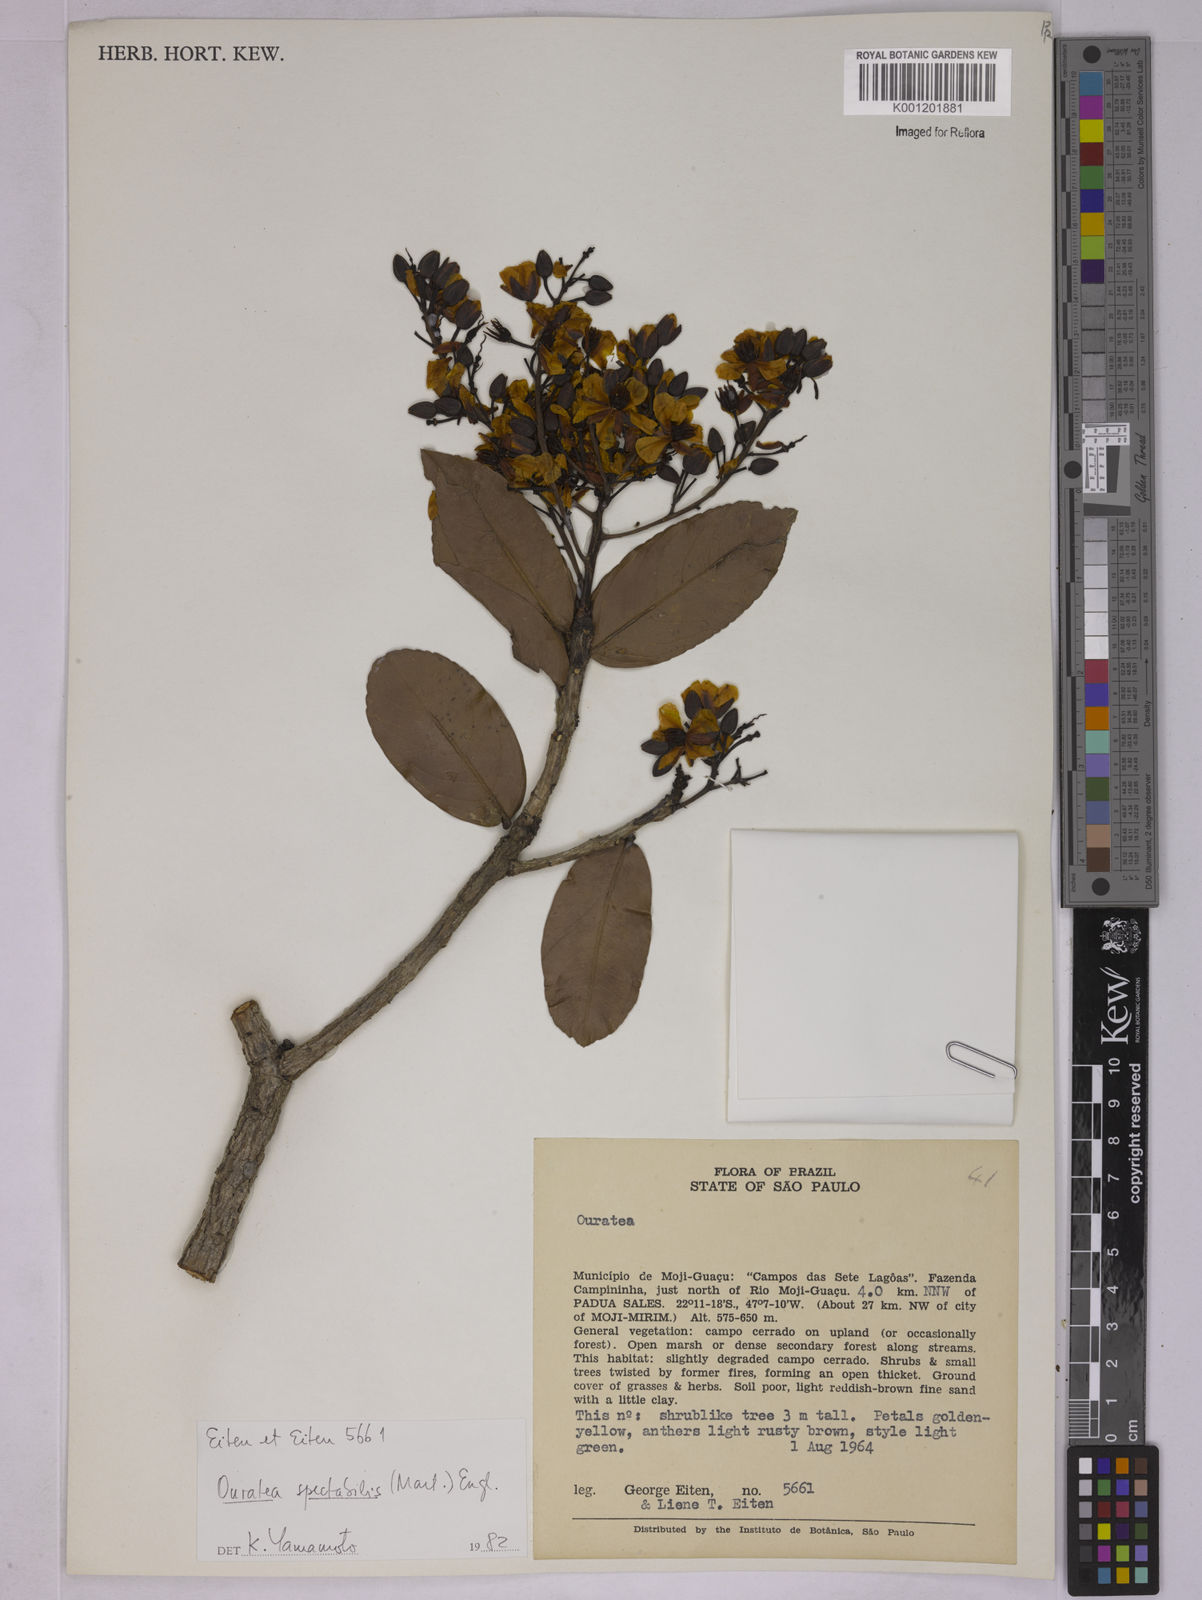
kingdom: Plantae
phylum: Tracheophyta
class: Magnoliopsida
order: Malpighiales
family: Ochnaceae
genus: Ouratea
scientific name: Ouratea spectabilis
